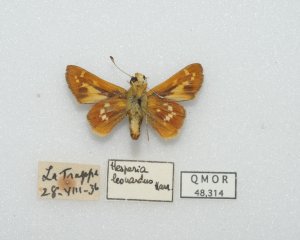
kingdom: Animalia
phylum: Arthropoda
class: Insecta
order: Lepidoptera
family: Hesperiidae
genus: Hesperia
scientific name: Hesperia leonardus
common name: Leonard's Skipper
